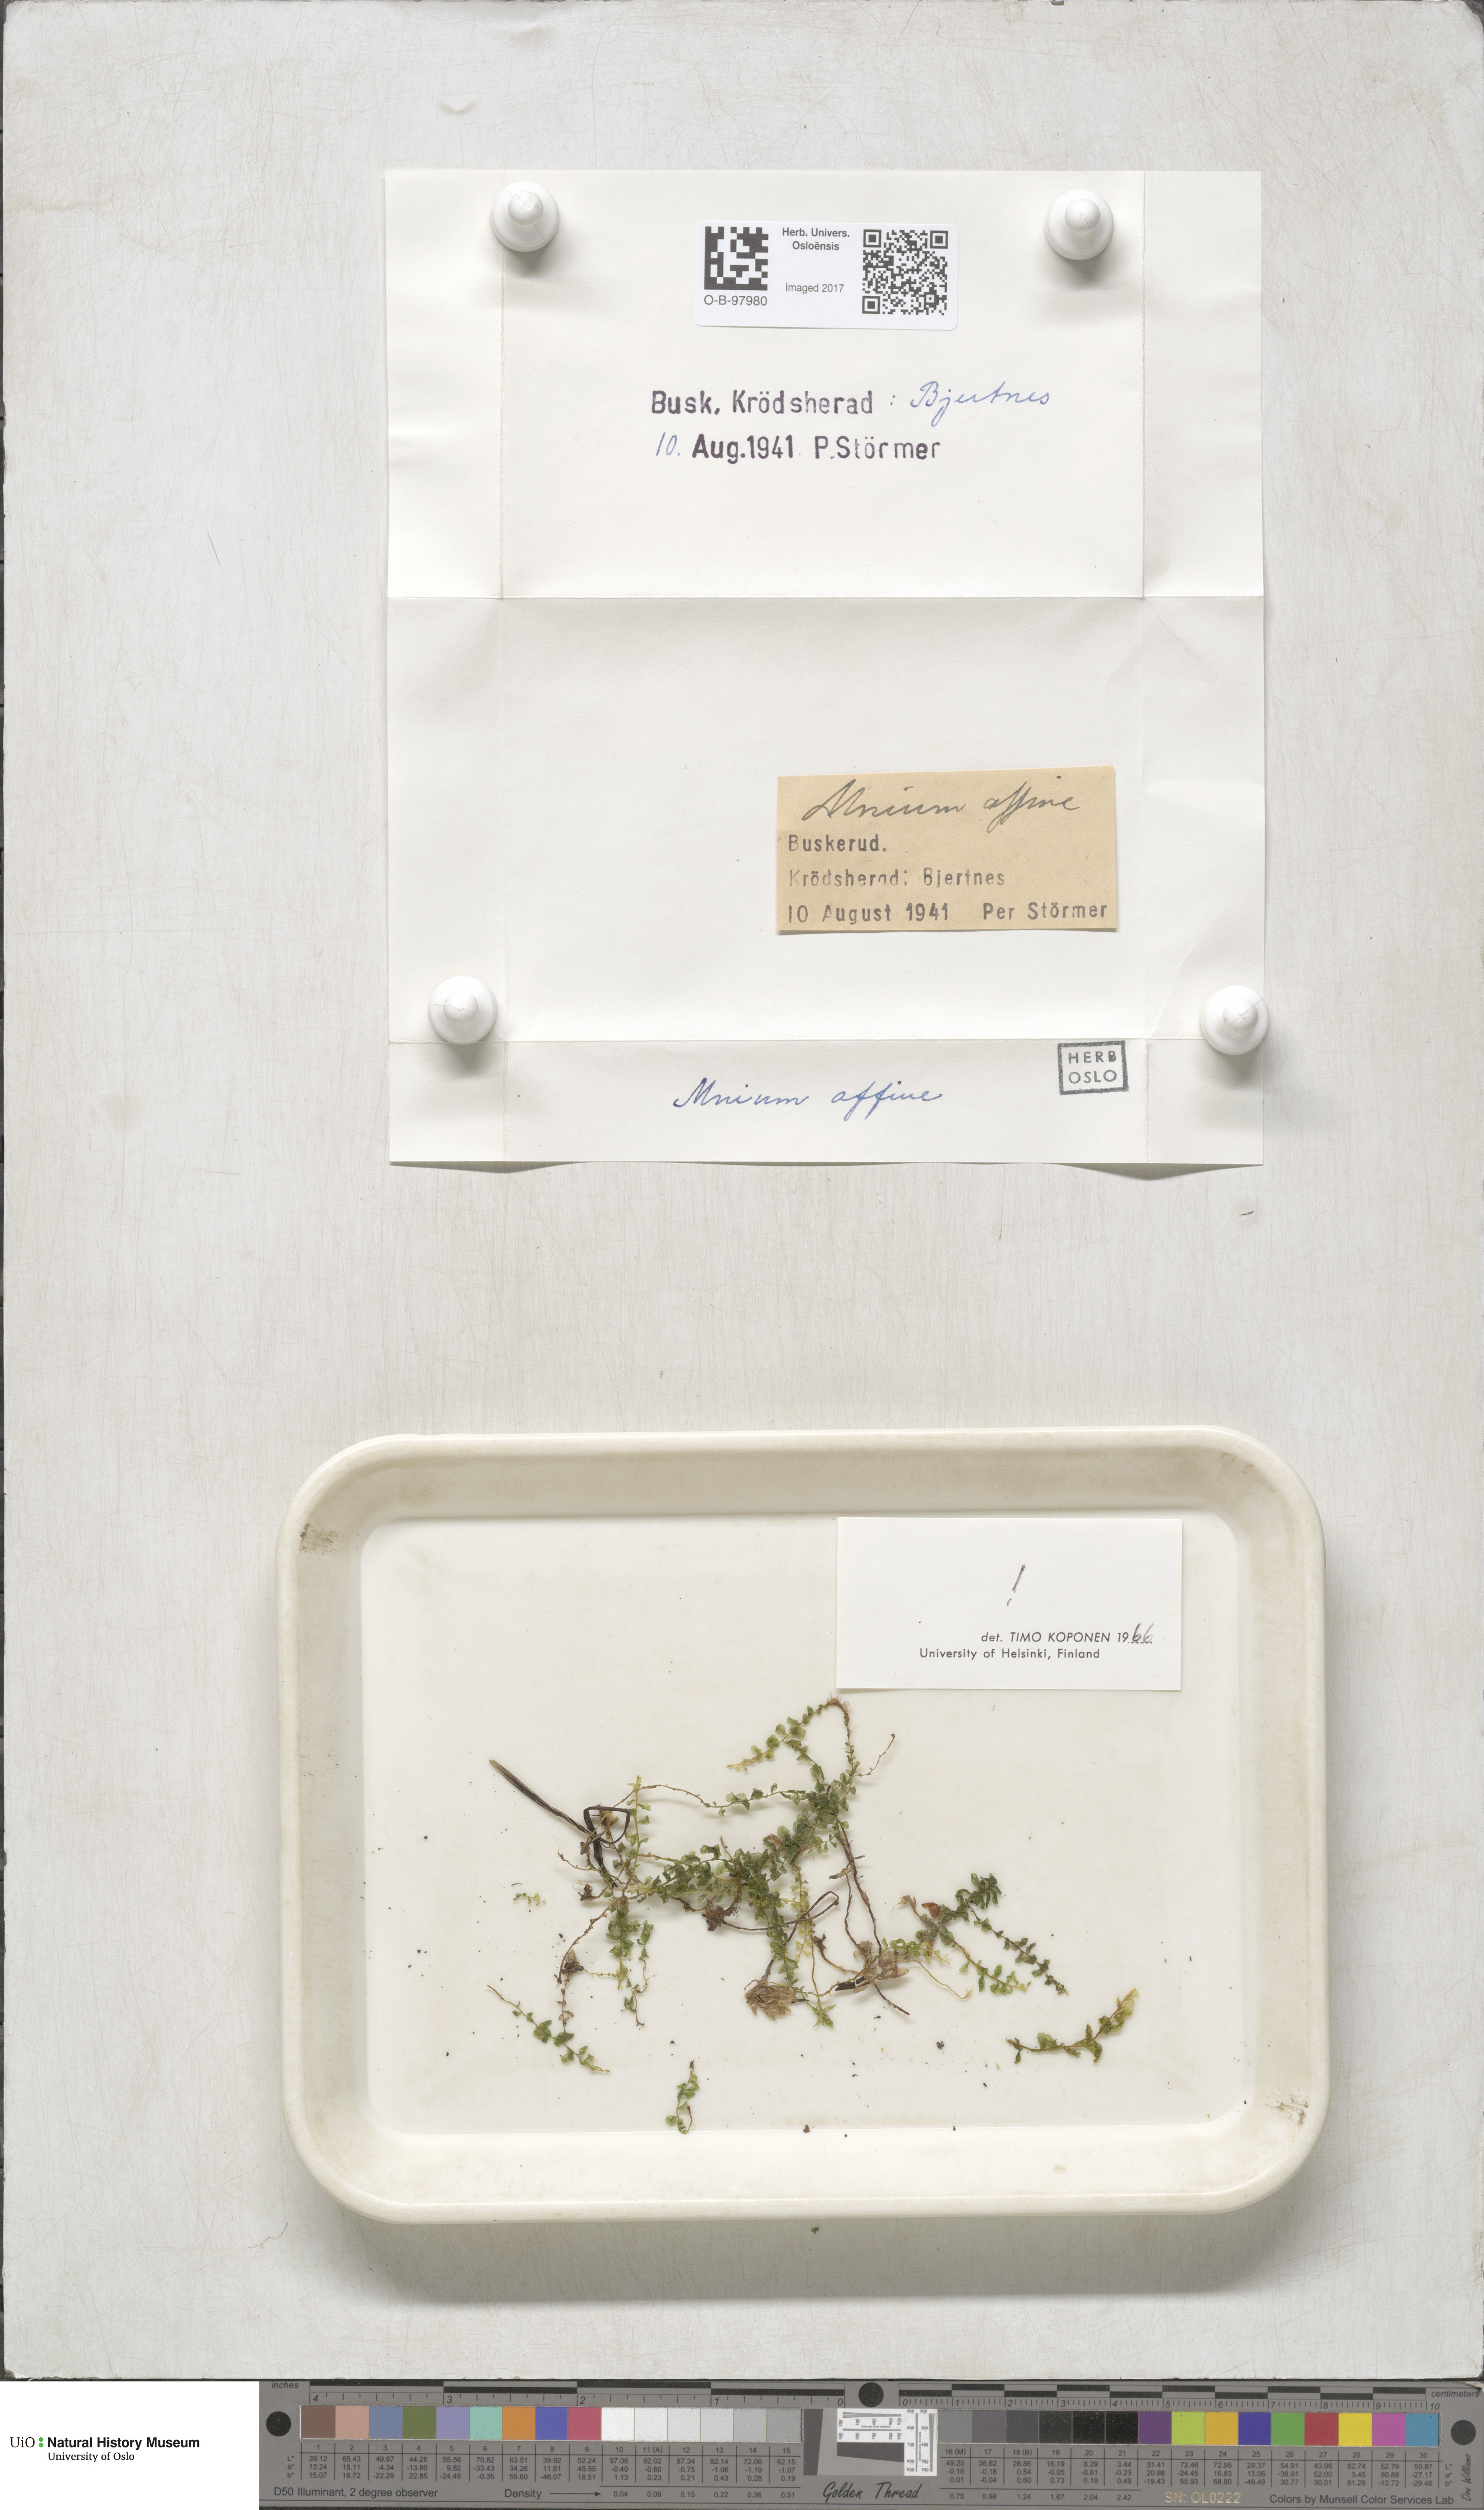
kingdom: Plantae
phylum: Bryophyta
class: Bryopsida
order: Bryales
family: Mniaceae
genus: Plagiomnium
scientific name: Plagiomnium affine
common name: Many-fruited thyme-moss
